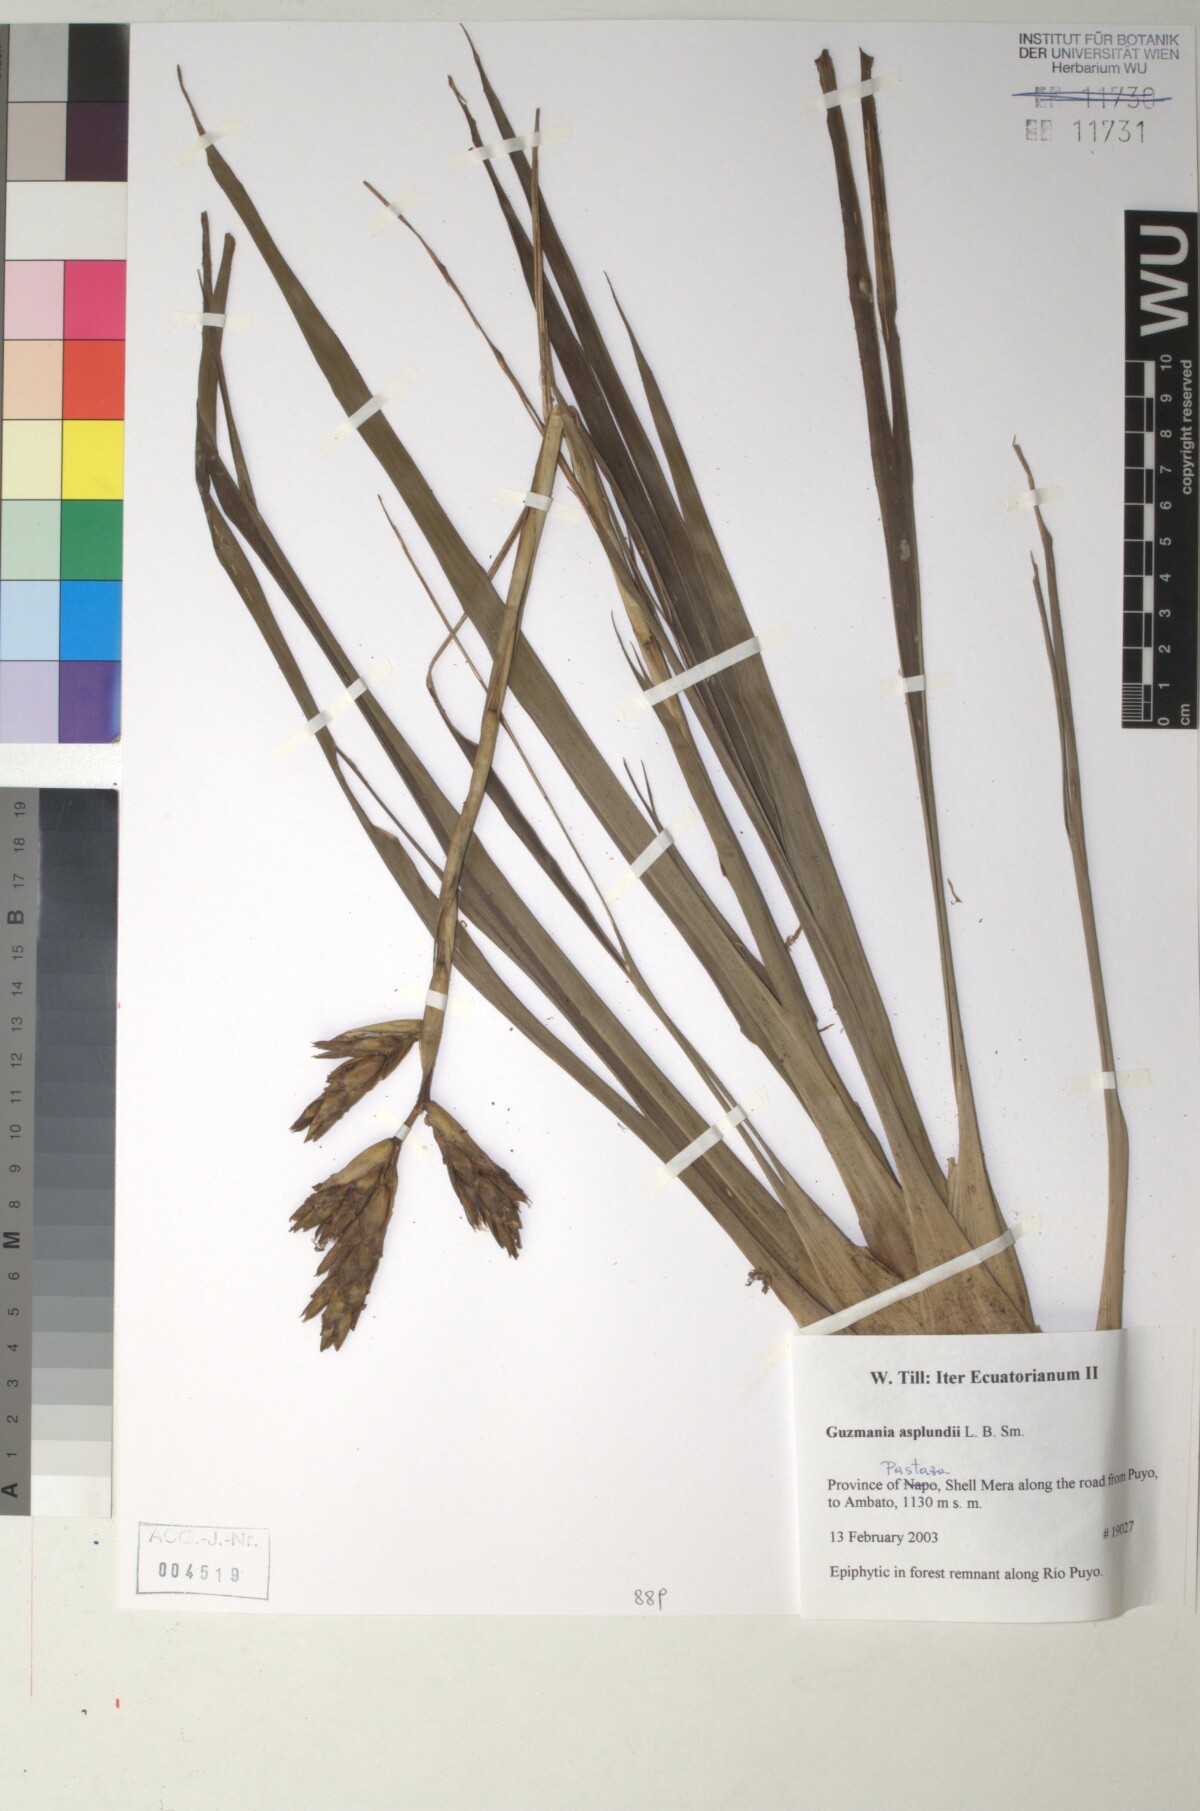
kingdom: Plantae
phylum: Tracheophyta
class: Liliopsida
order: Poales
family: Bromeliaceae
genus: Guzmania
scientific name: Guzmania asplundii
